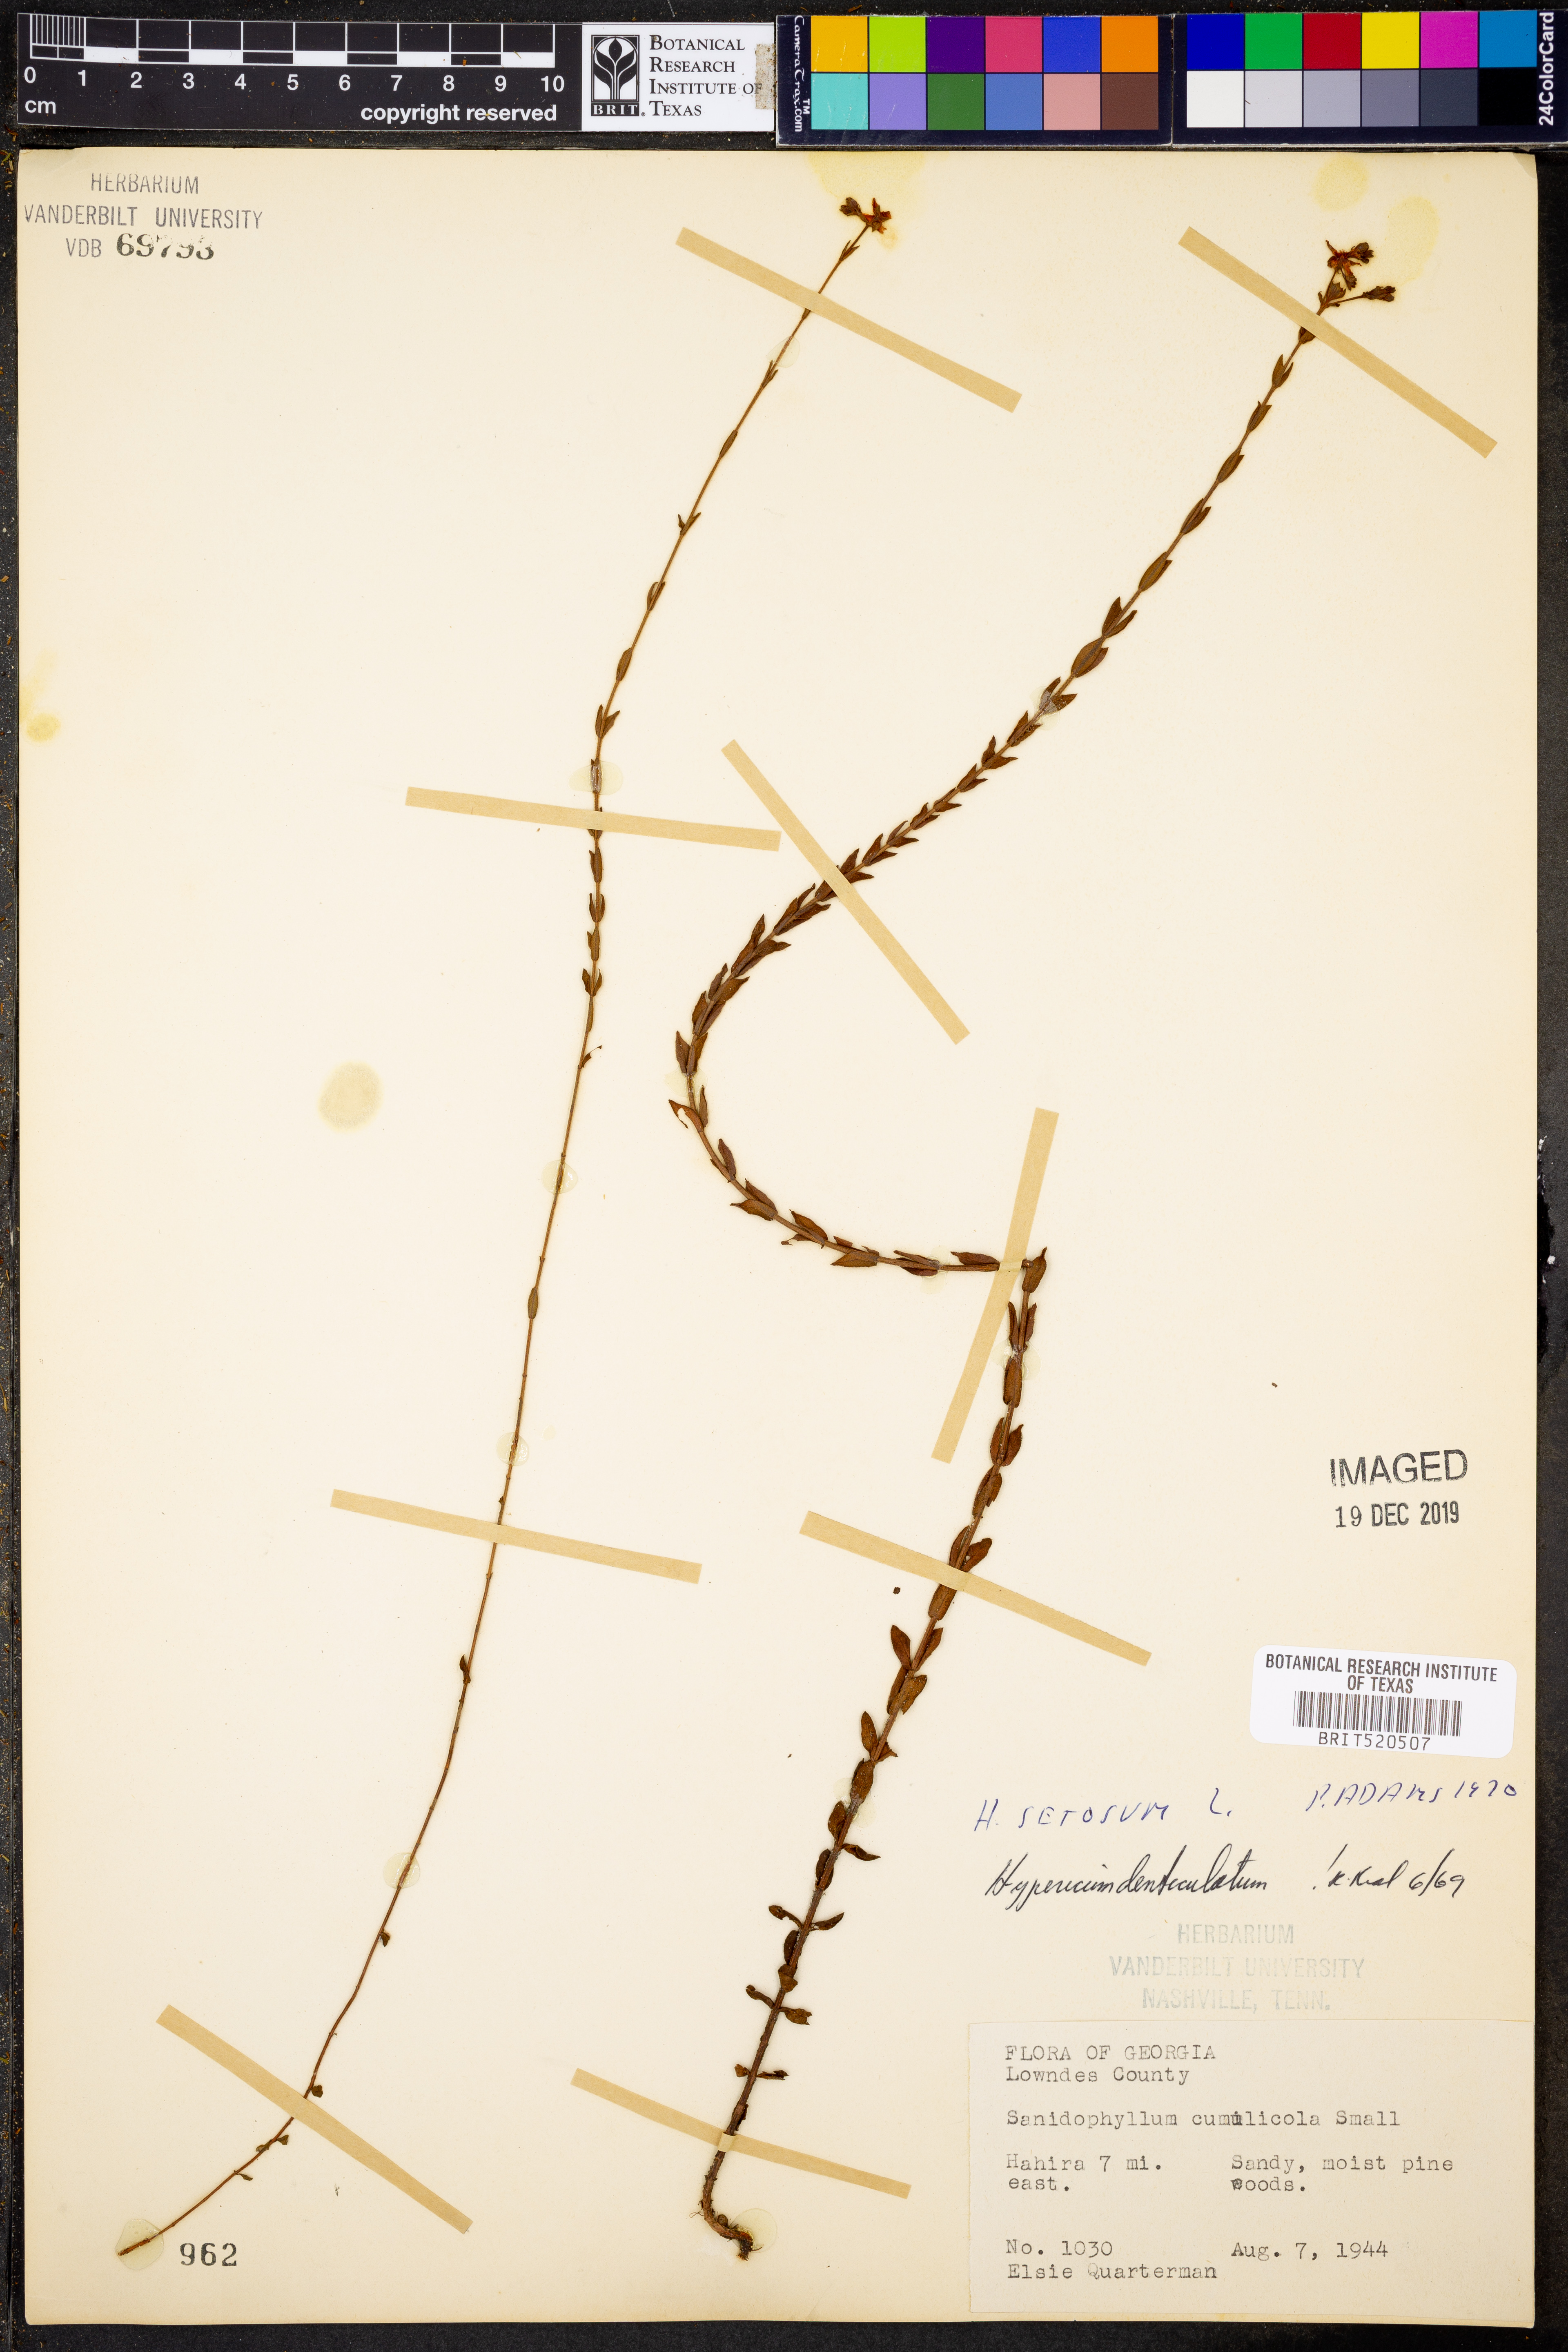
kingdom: Plantae
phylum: Tracheophyta
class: Magnoliopsida
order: Malpighiales
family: Hypericaceae
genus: Hypericum
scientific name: Hypericum setosum
